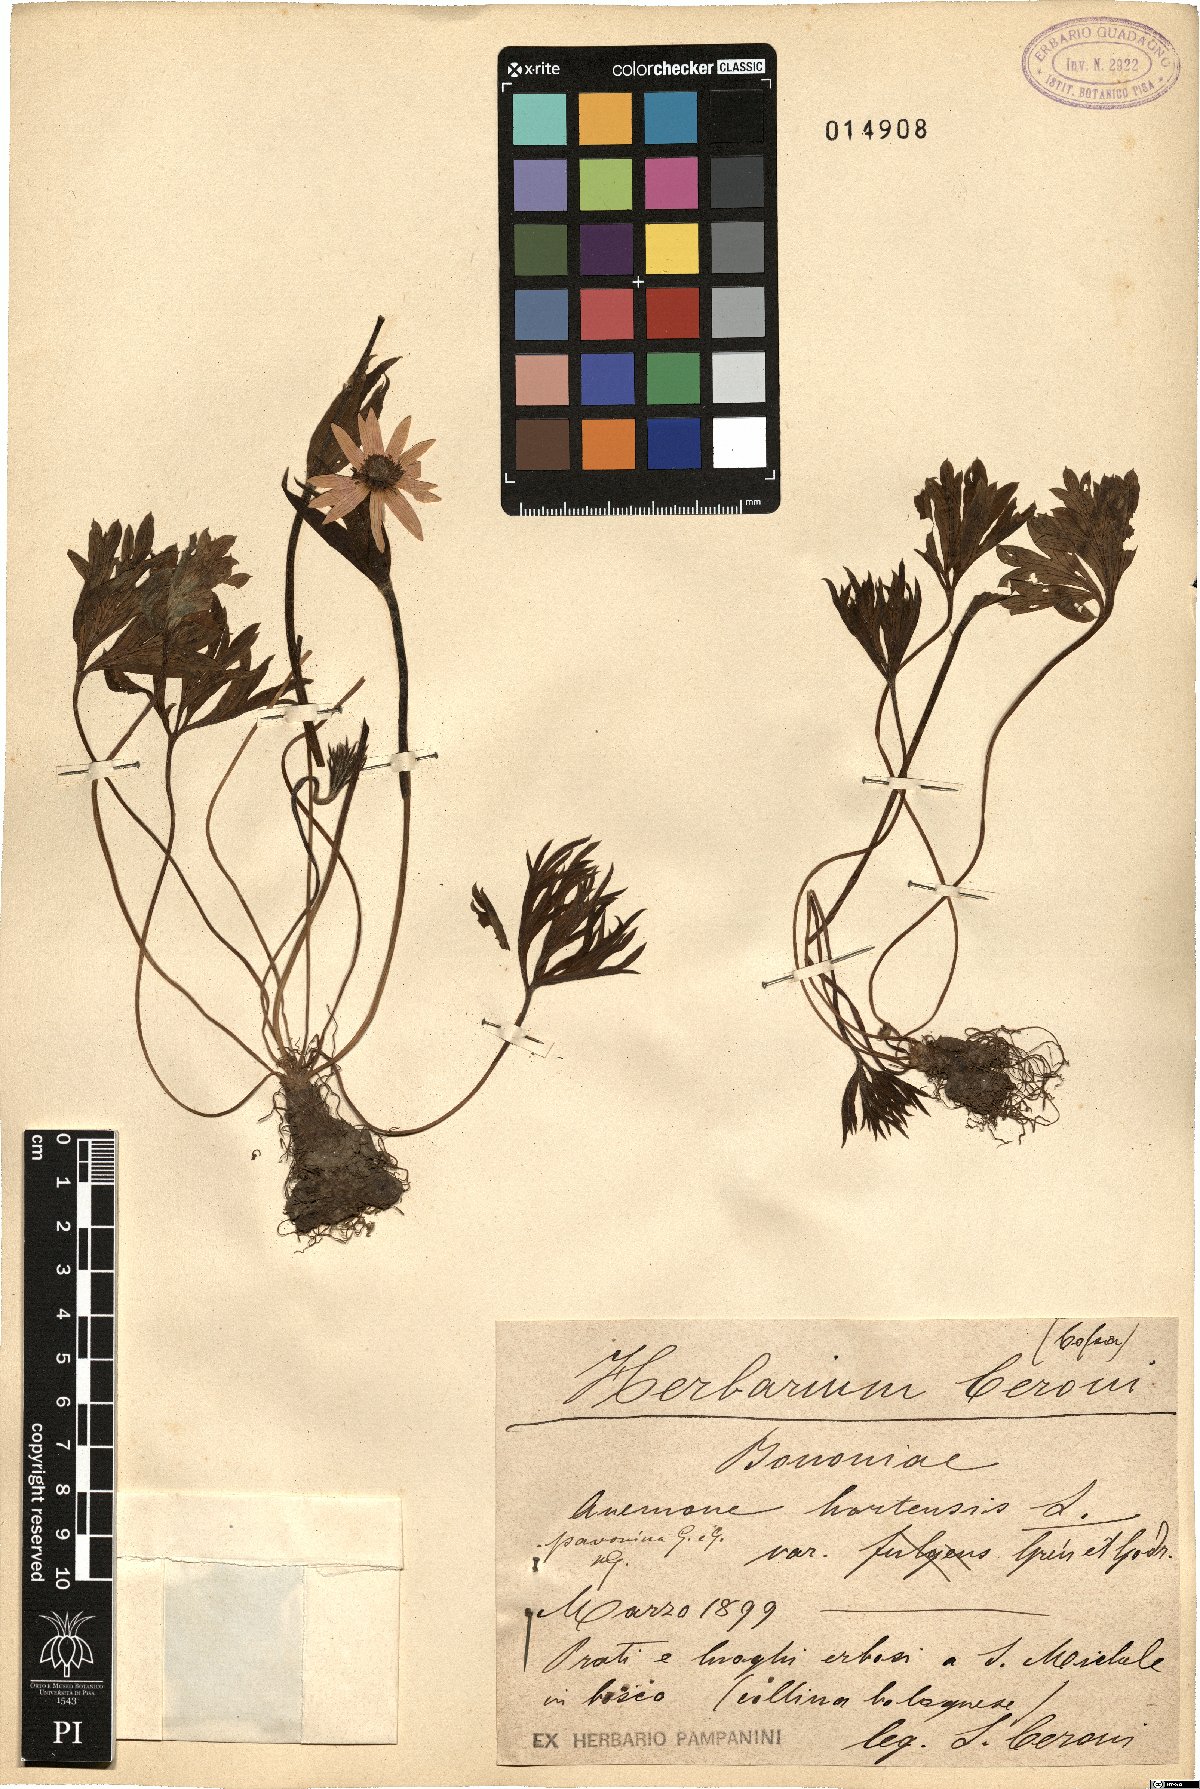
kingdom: Plantae
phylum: Tracheophyta
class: Magnoliopsida
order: Ranunculales
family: Ranunculaceae
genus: Anemone
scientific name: Anemone hortensis
